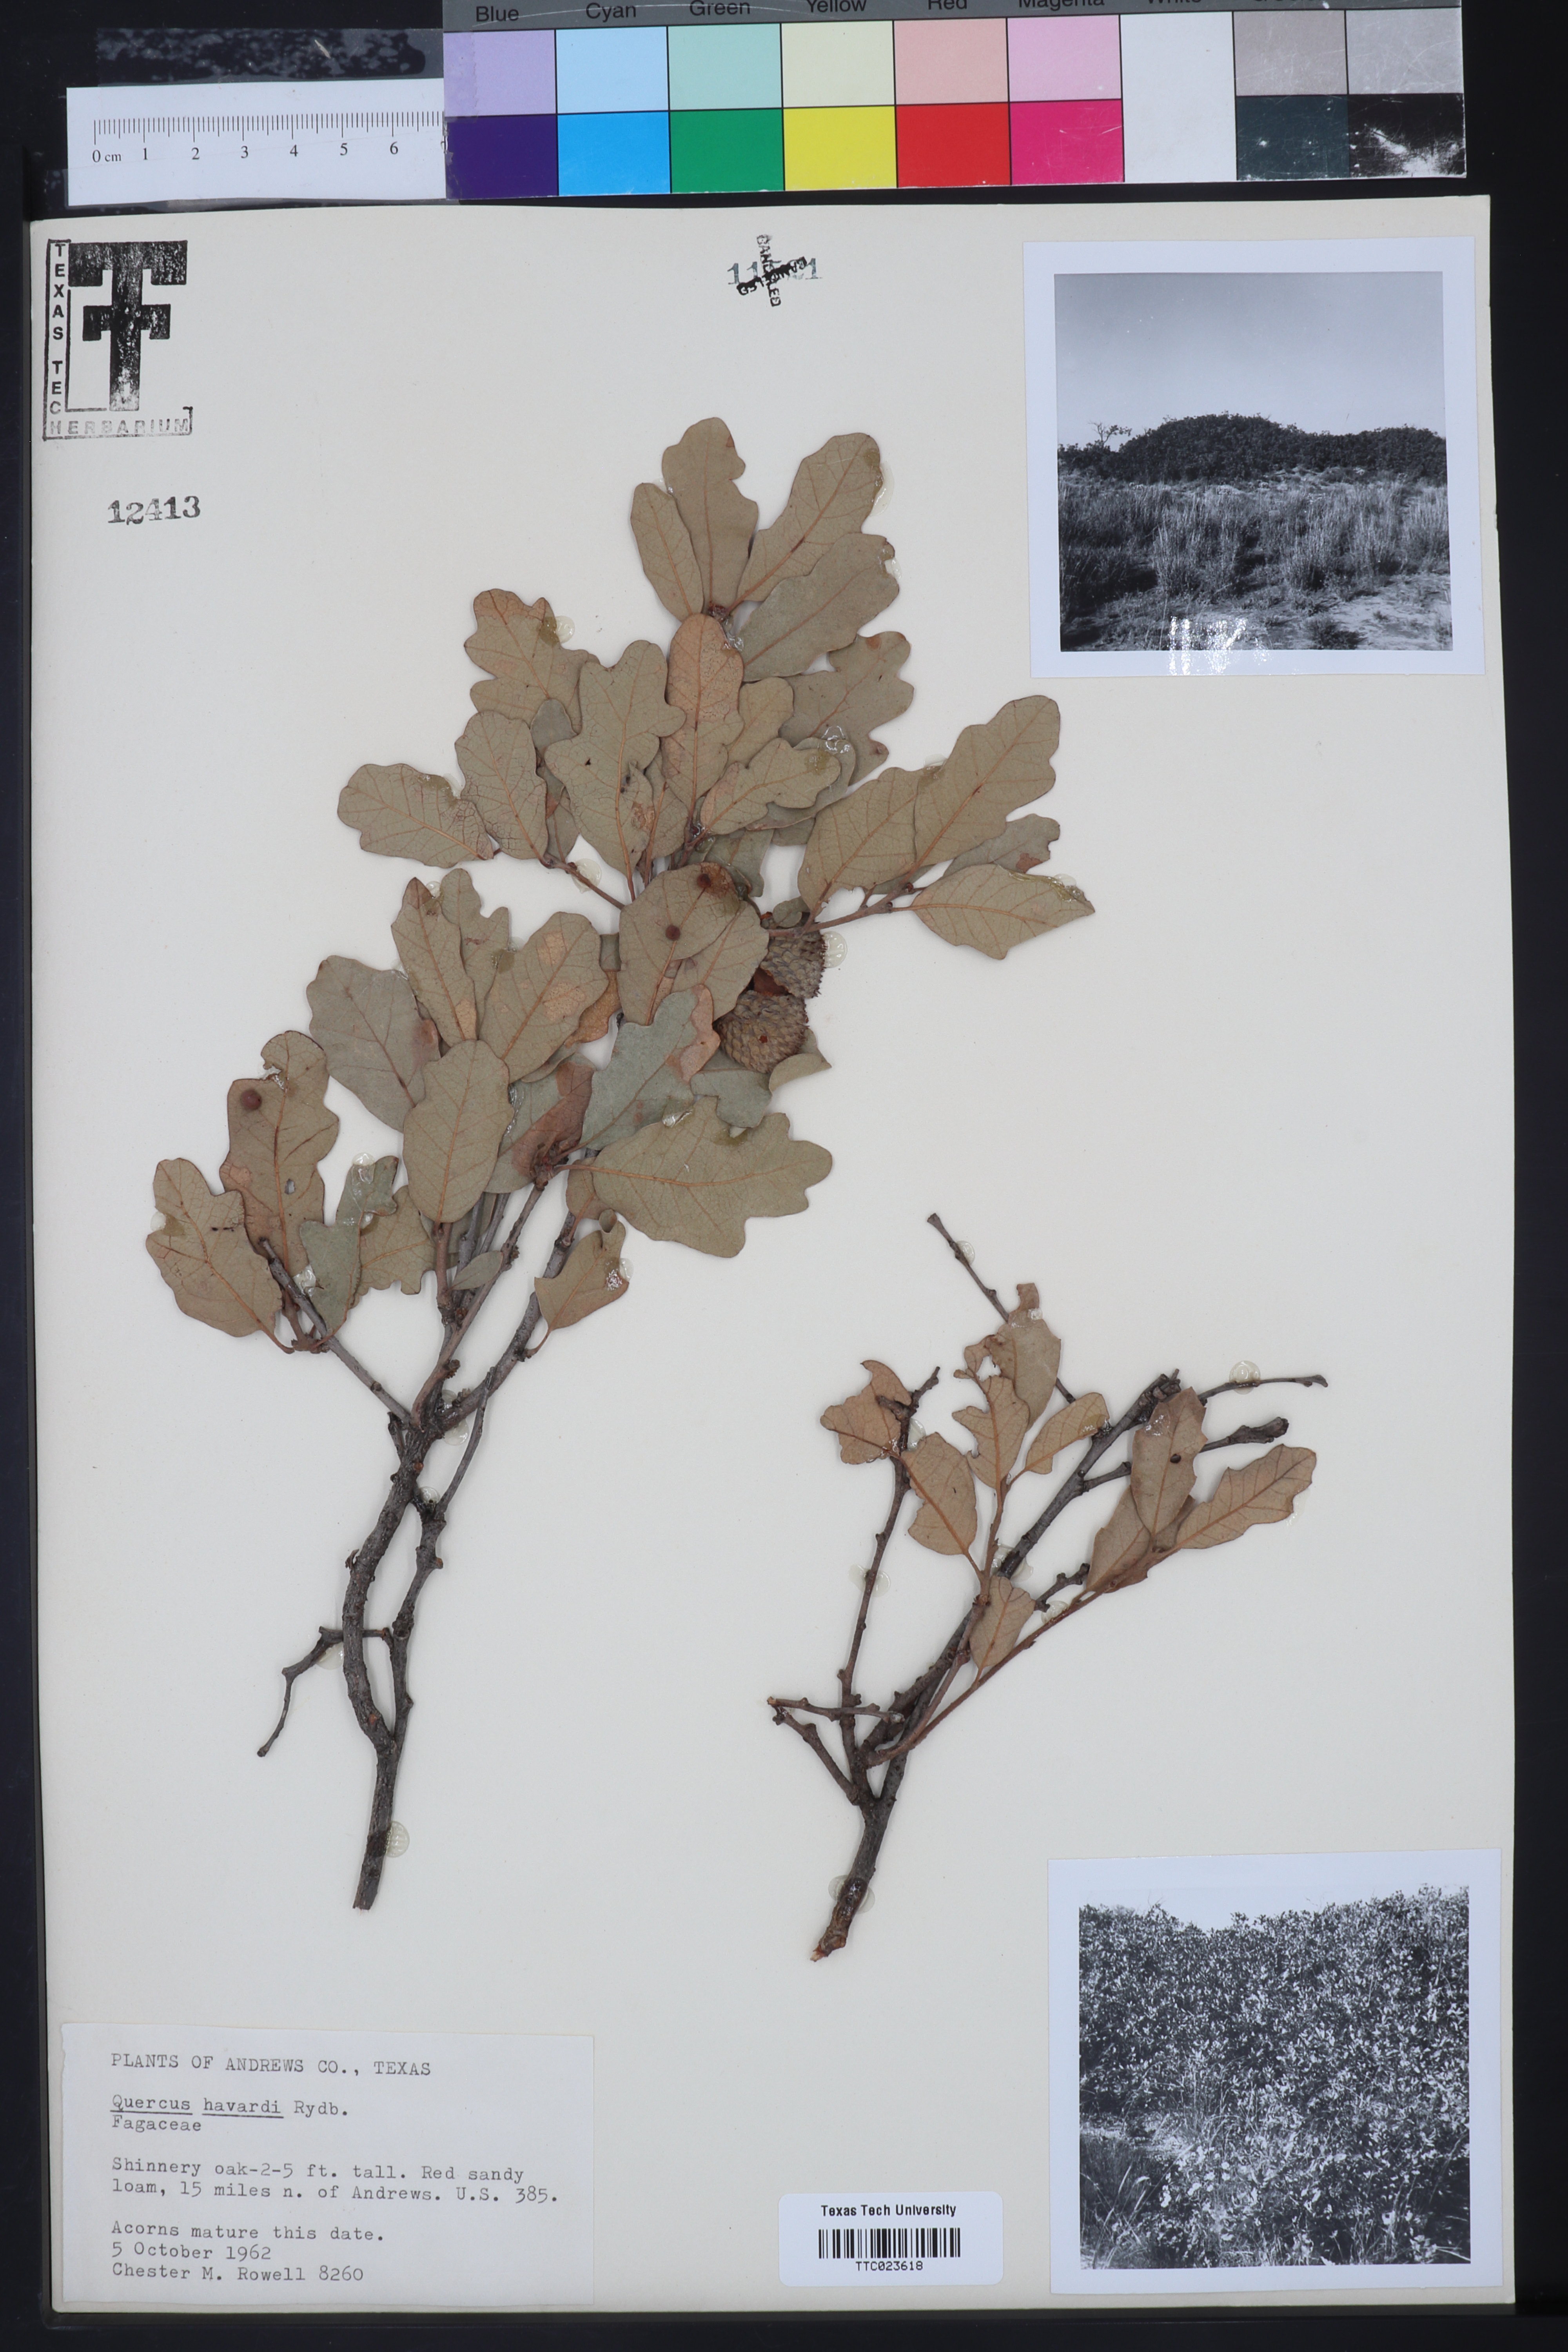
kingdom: Plantae
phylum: Tracheophyta
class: Magnoliopsida
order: Fagales
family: Fagaceae
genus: Quercus
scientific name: Quercus havardii
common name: Shinnery oak
